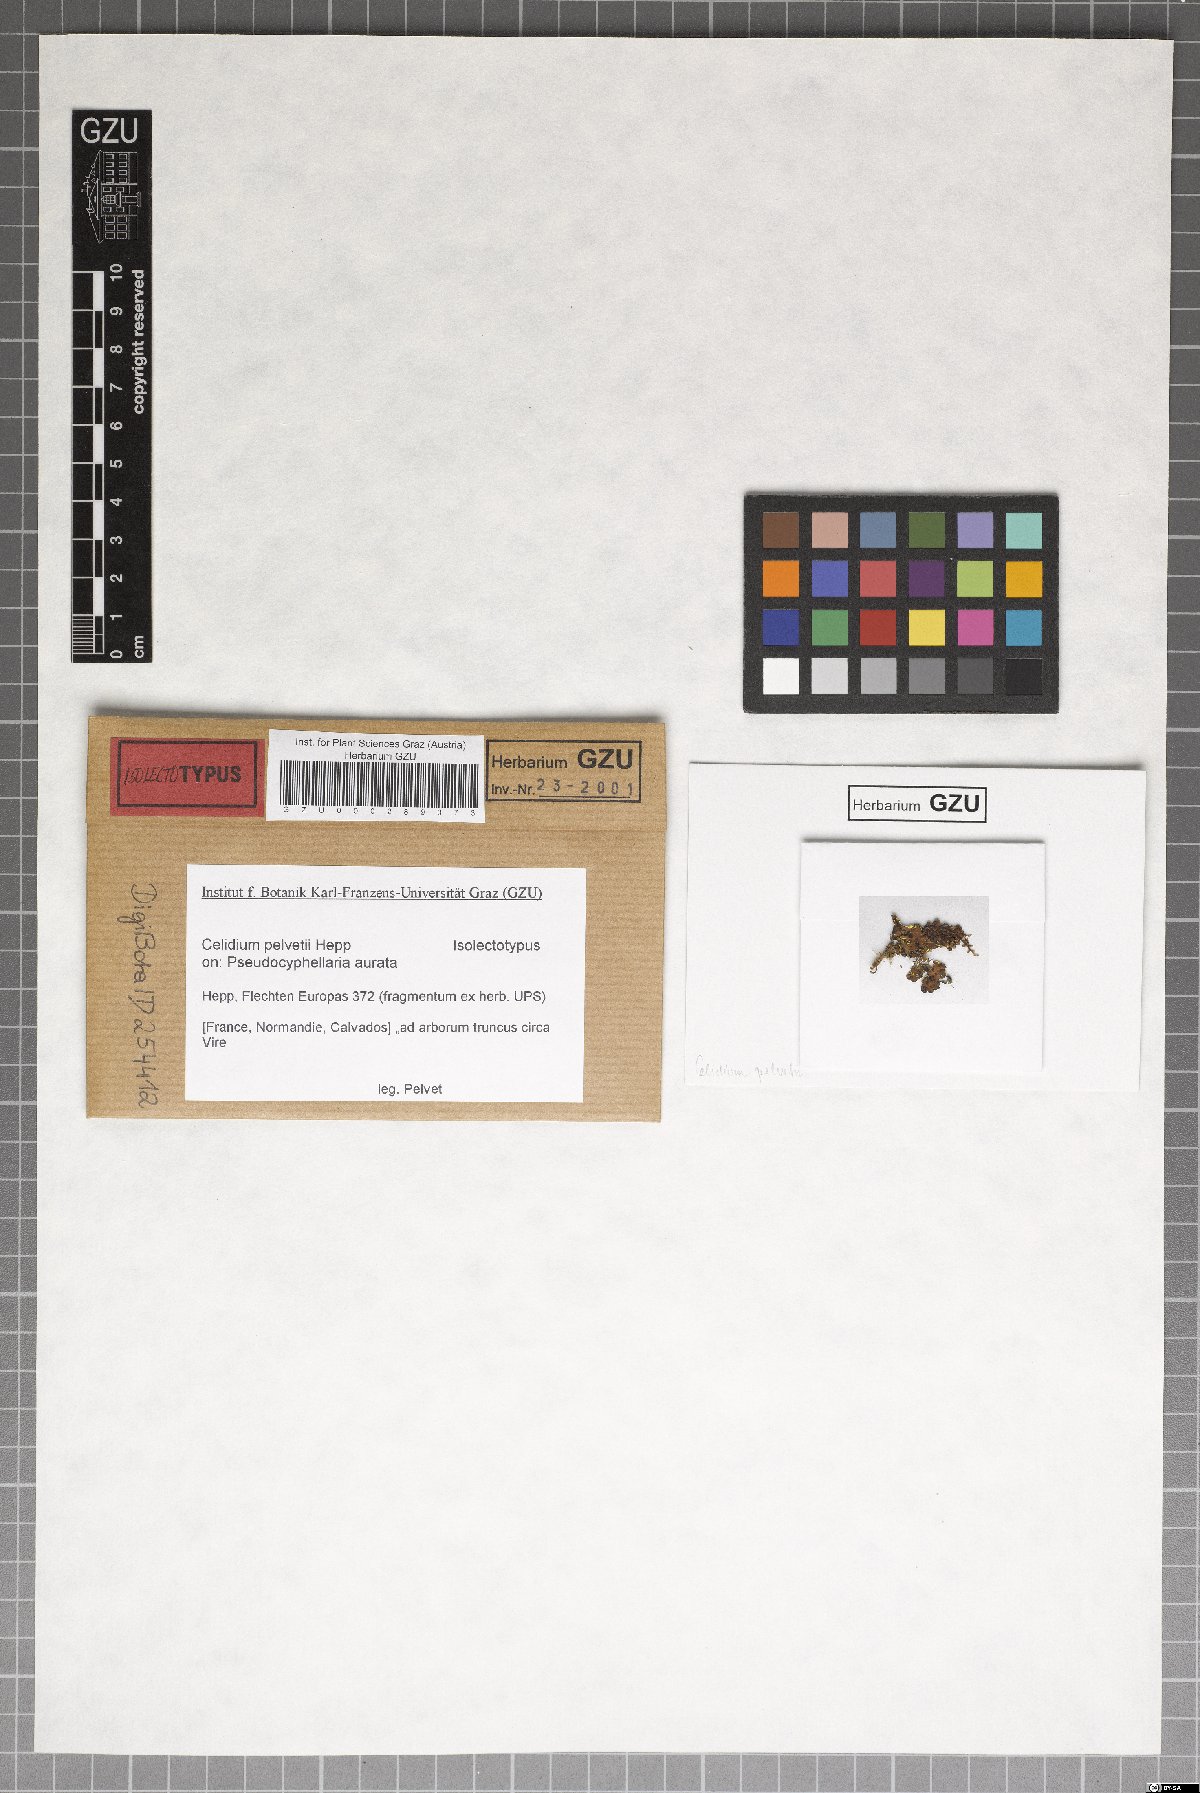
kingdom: Fungi
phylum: Ascomycota
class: Dothideomycetes
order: Dothideales
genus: Homostegia
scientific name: Homostegia pelvetii
